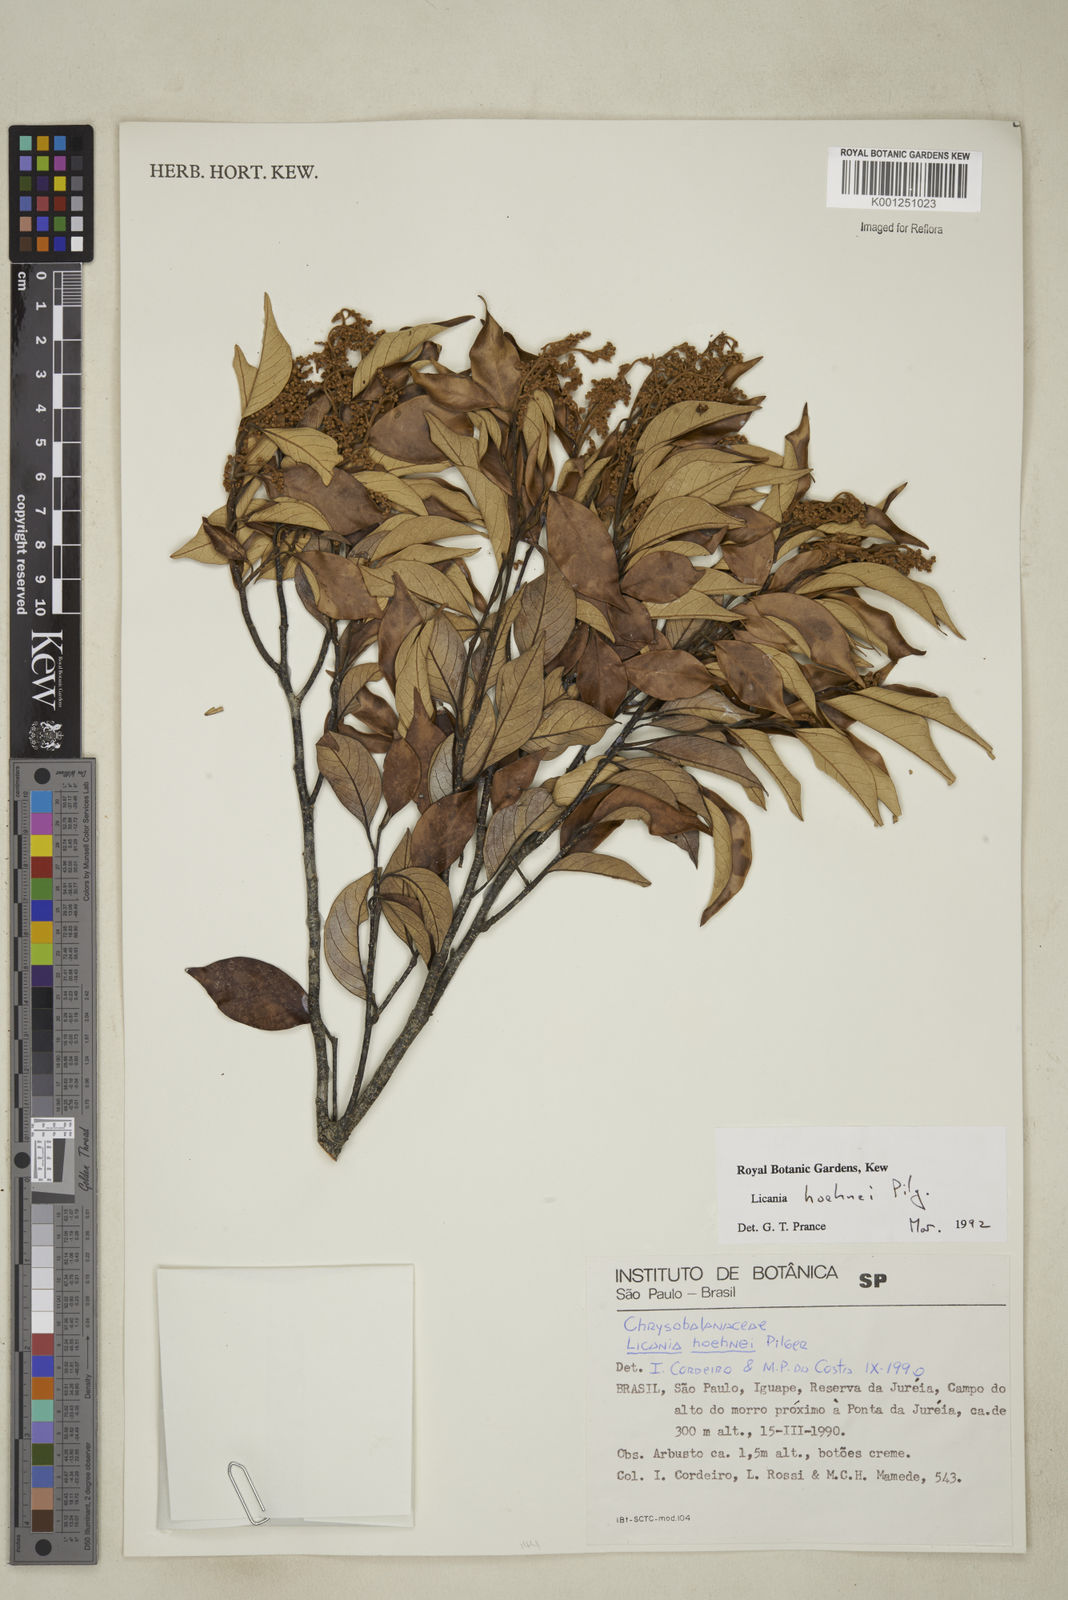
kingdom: Plantae
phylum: Tracheophyta
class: Magnoliopsida
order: Malpighiales
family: Chrysobalanaceae
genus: Licania
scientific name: Licania indurata
